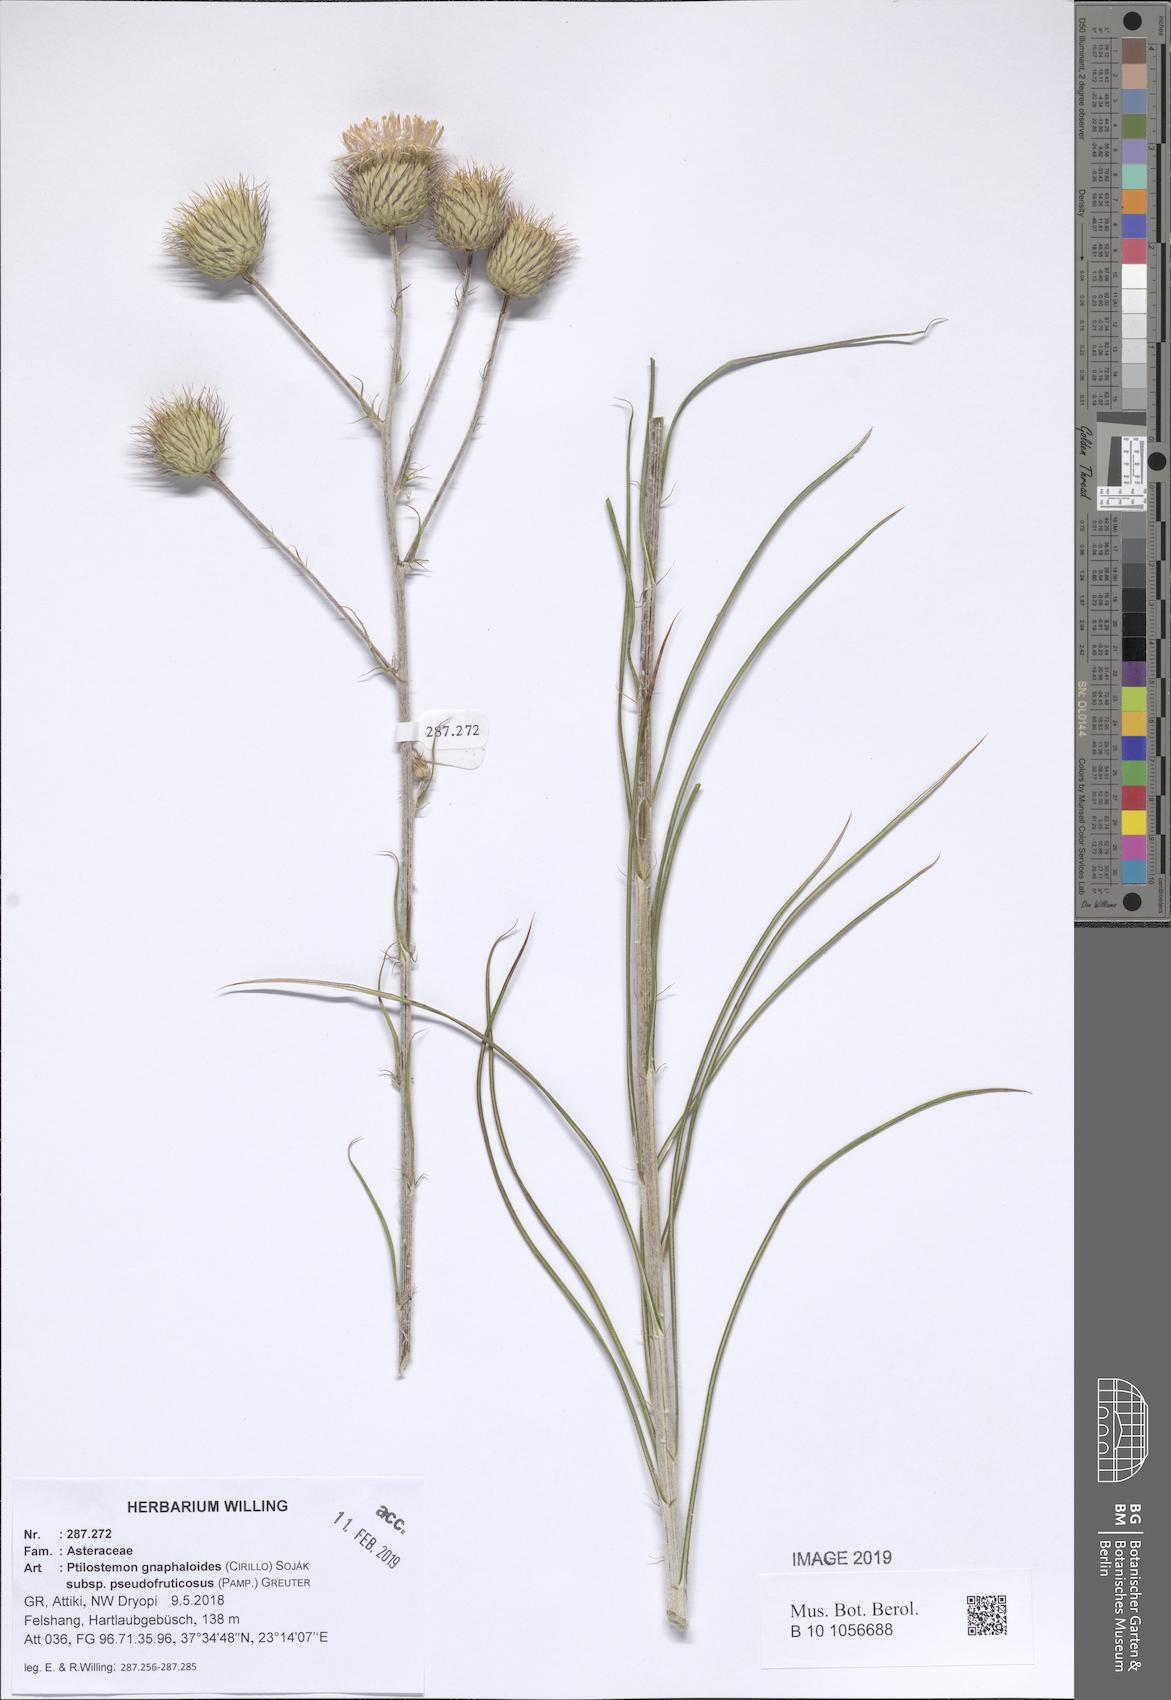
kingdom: Plantae
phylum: Tracheophyta
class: Magnoliopsida
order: Asterales
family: Asteraceae
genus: Ptilostemon
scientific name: Ptilostemon gnaphaloides
